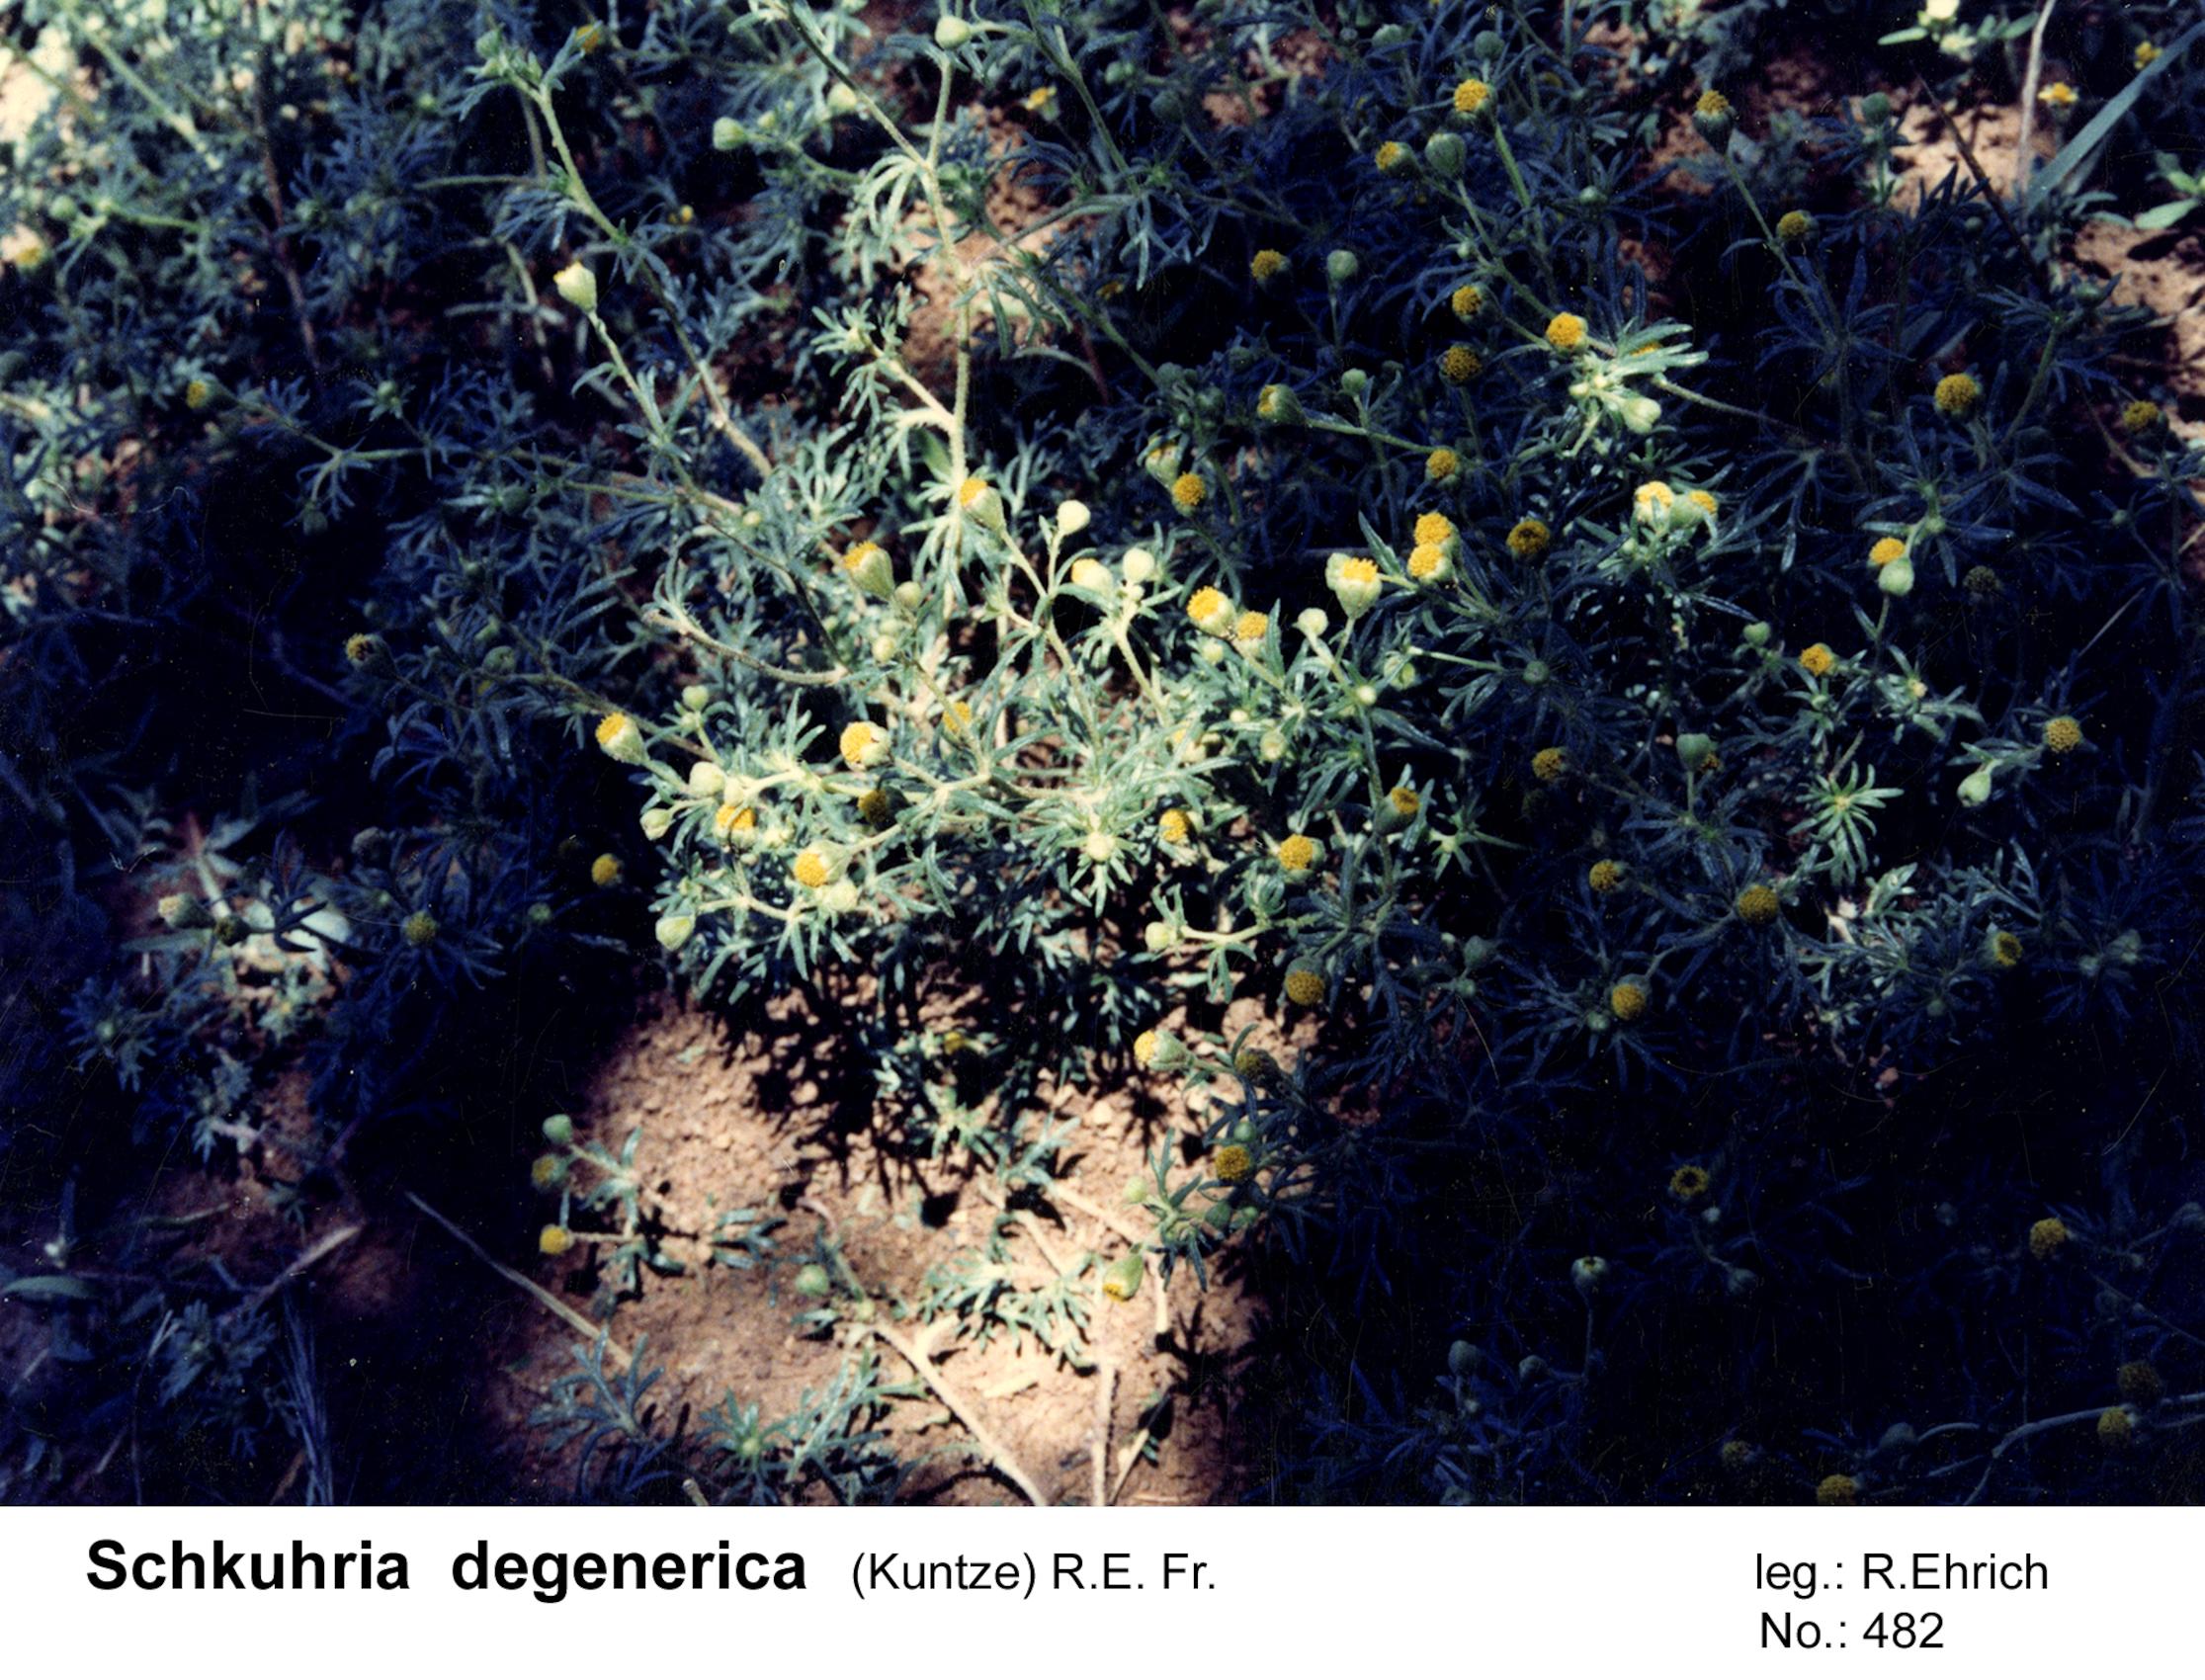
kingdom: Plantae
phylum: Tracheophyta
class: Magnoliopsida
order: Asterales
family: Asteraceae
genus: Nothoschkuhria
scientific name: Nothoschkuhria degenerica
